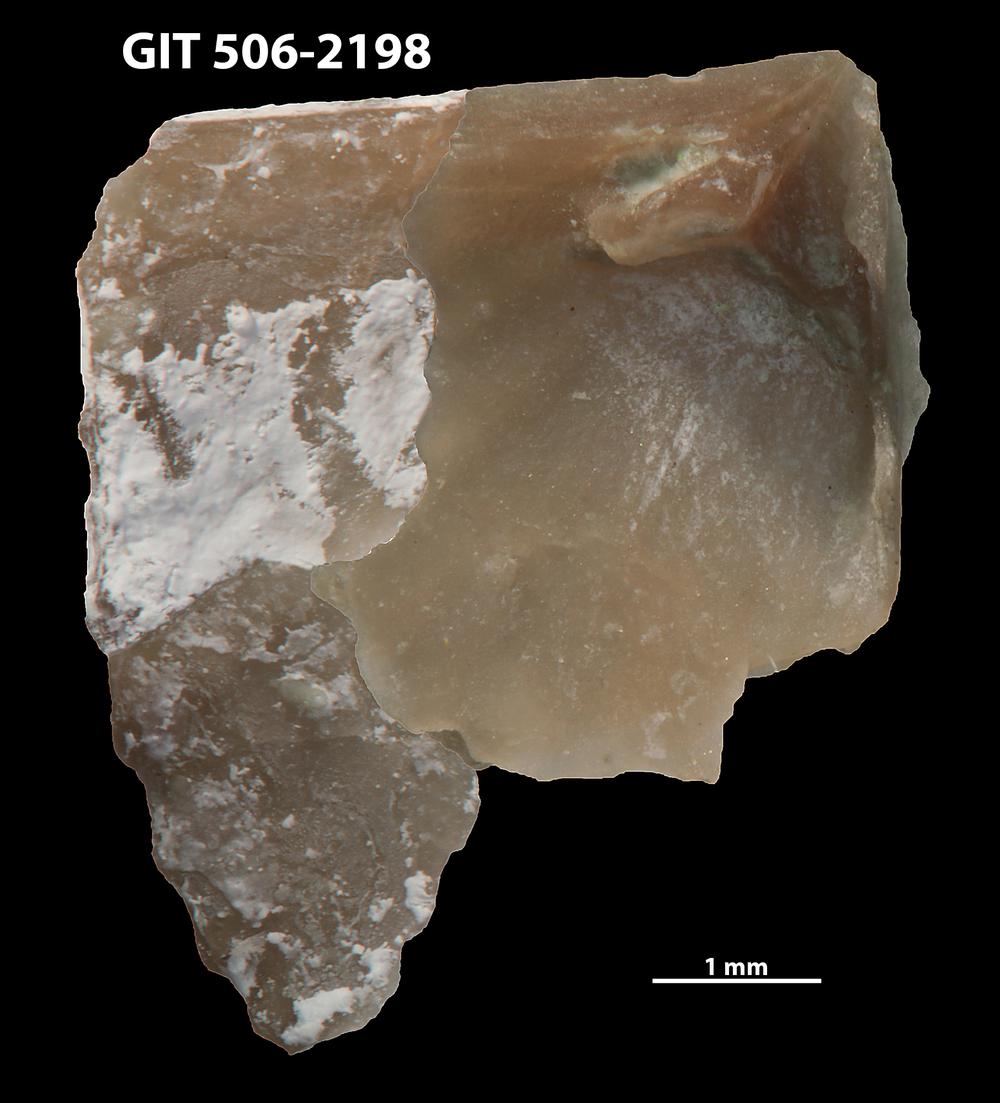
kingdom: Animalia
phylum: Brachiopoda
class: Rhynchonellata
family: Skenidiidae
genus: Skenidioides
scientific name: Skenidioides hymiri
